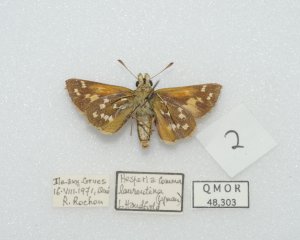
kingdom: Animalia
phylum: Arthropoda
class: Insecta
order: Lepidoptera
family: Hesperiidae
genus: Hesperia
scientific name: Hesperia comma
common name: Common Branded Skipper
